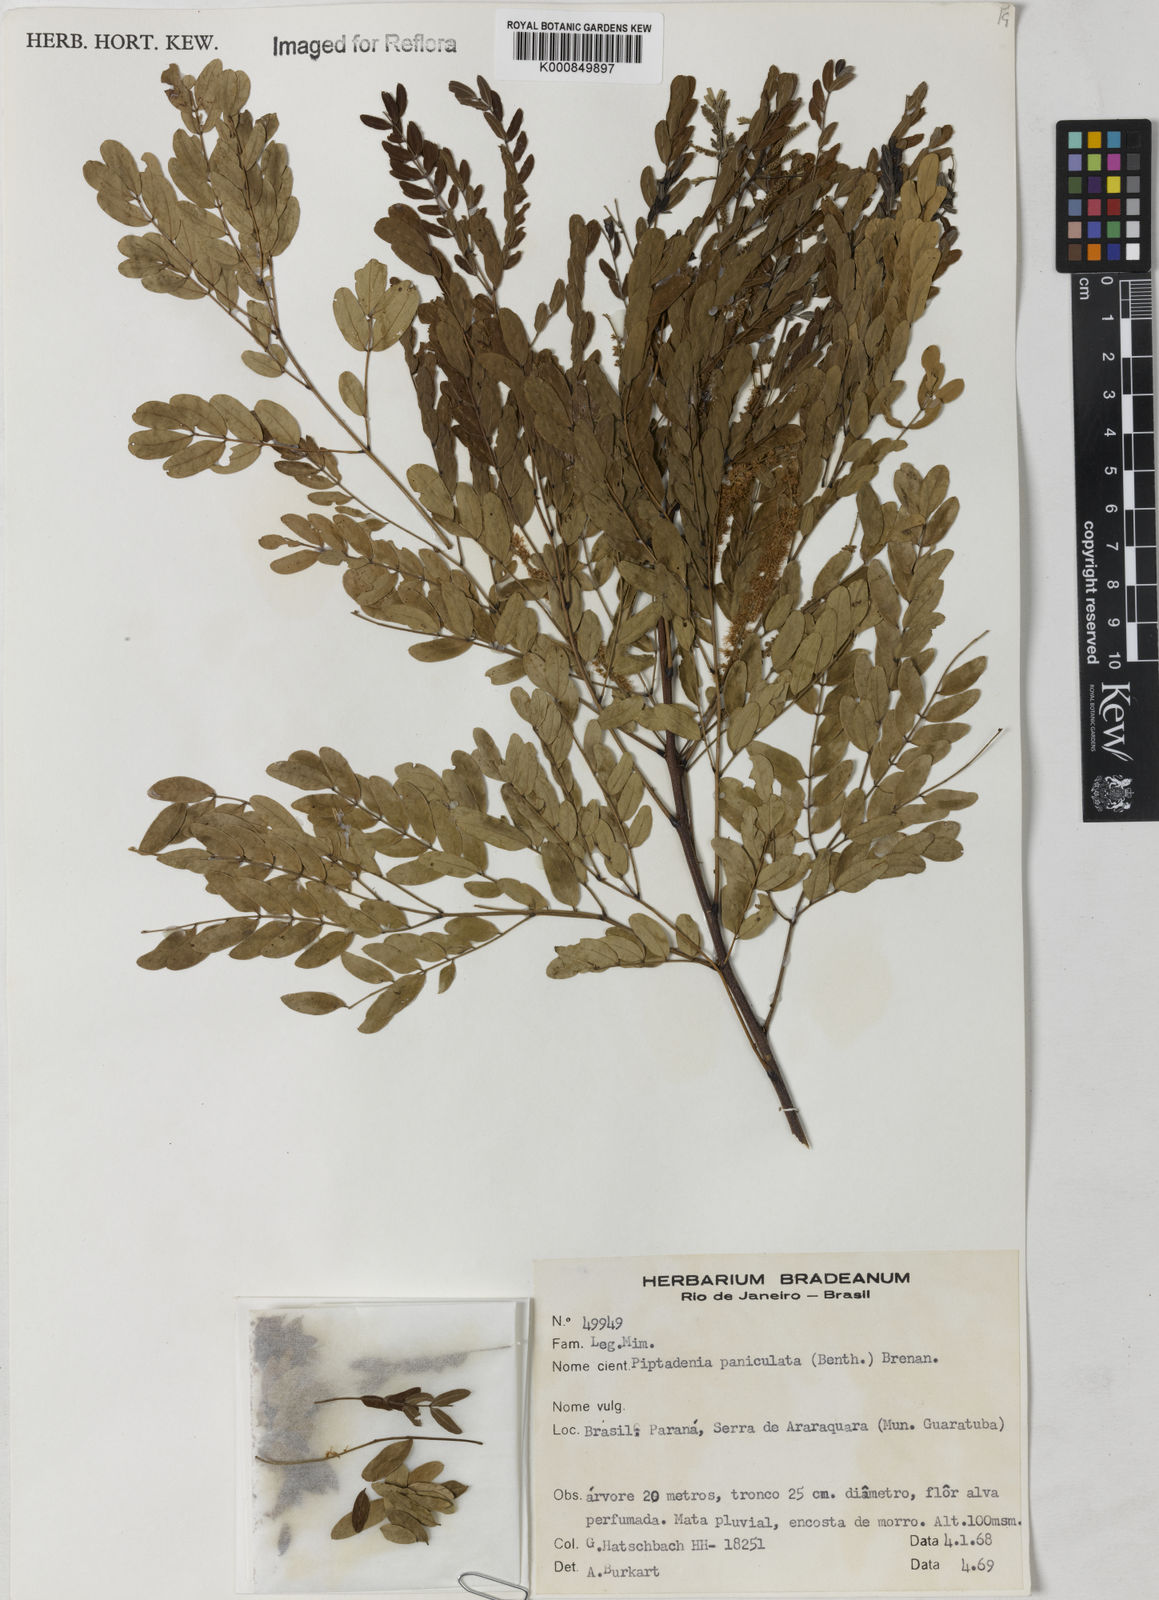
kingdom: Plantae
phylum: Tracheophyta
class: Magnoliopsida
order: Fabales
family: Fabaceae
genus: Piptadenia
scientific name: Piptadenia paniculata
